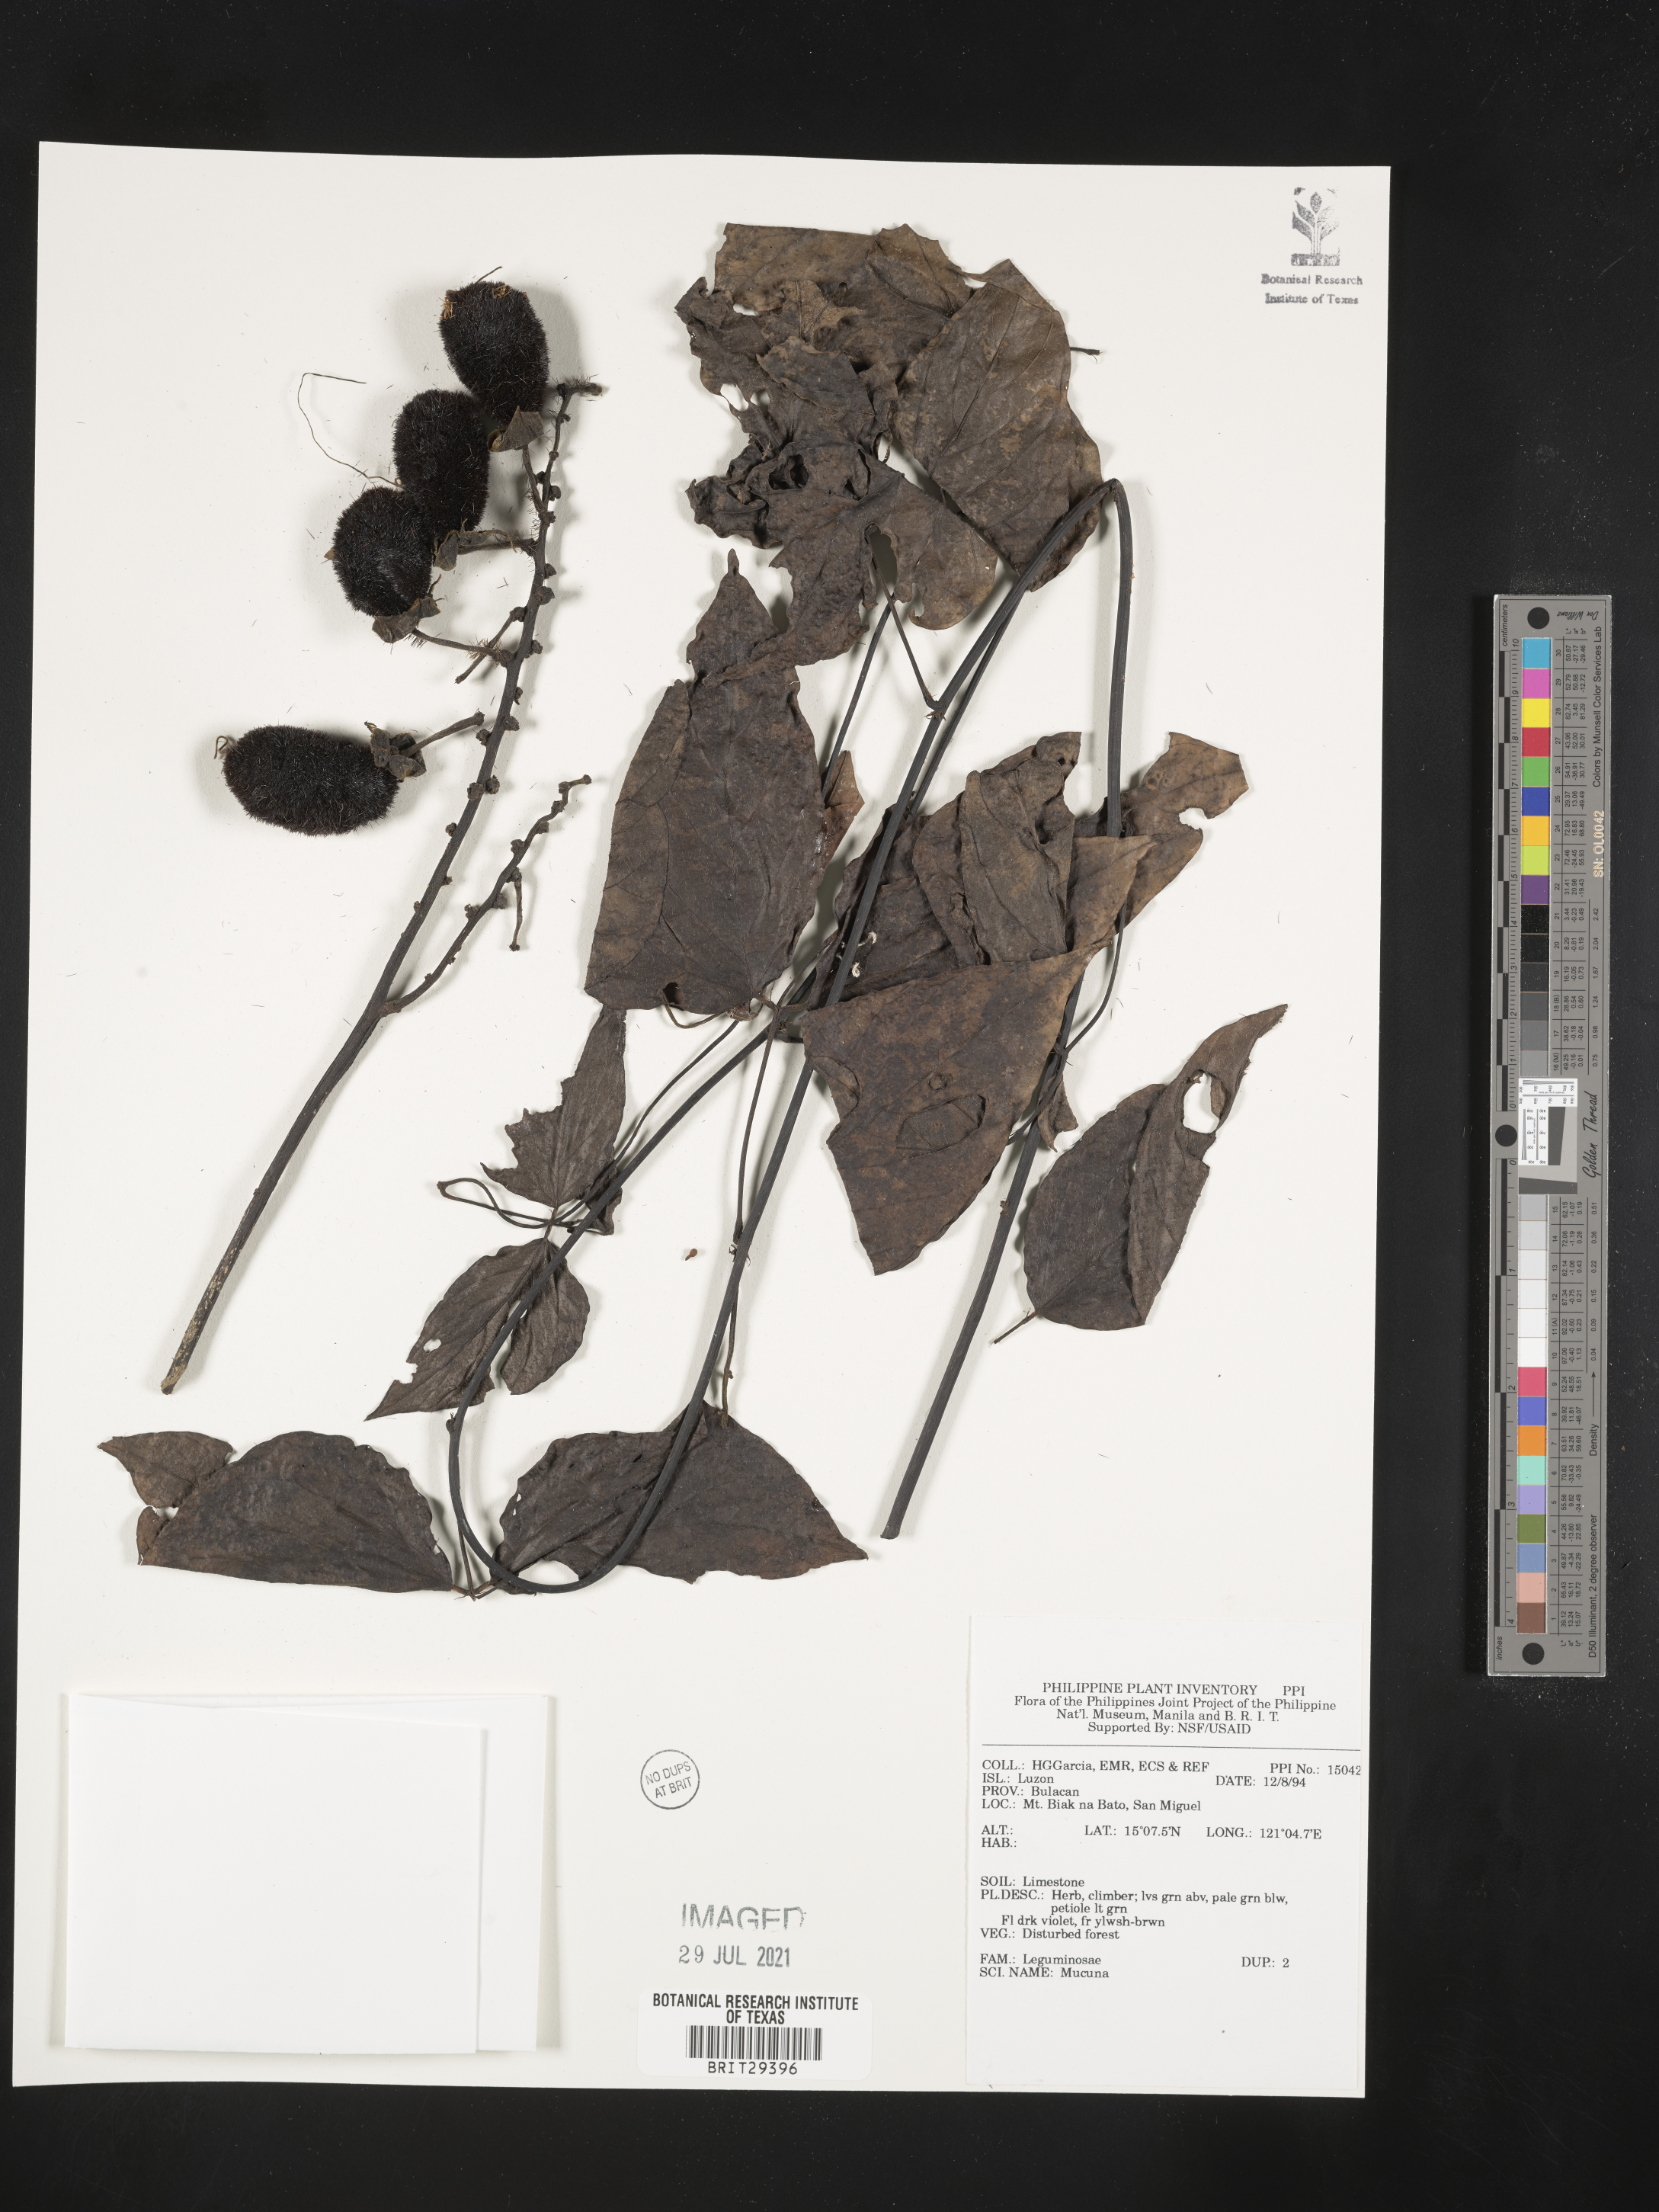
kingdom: Plantae
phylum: Tracheophyta
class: Magnoliopsida
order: Fabales
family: Fabaceae
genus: Mucuna
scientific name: Mucuna
